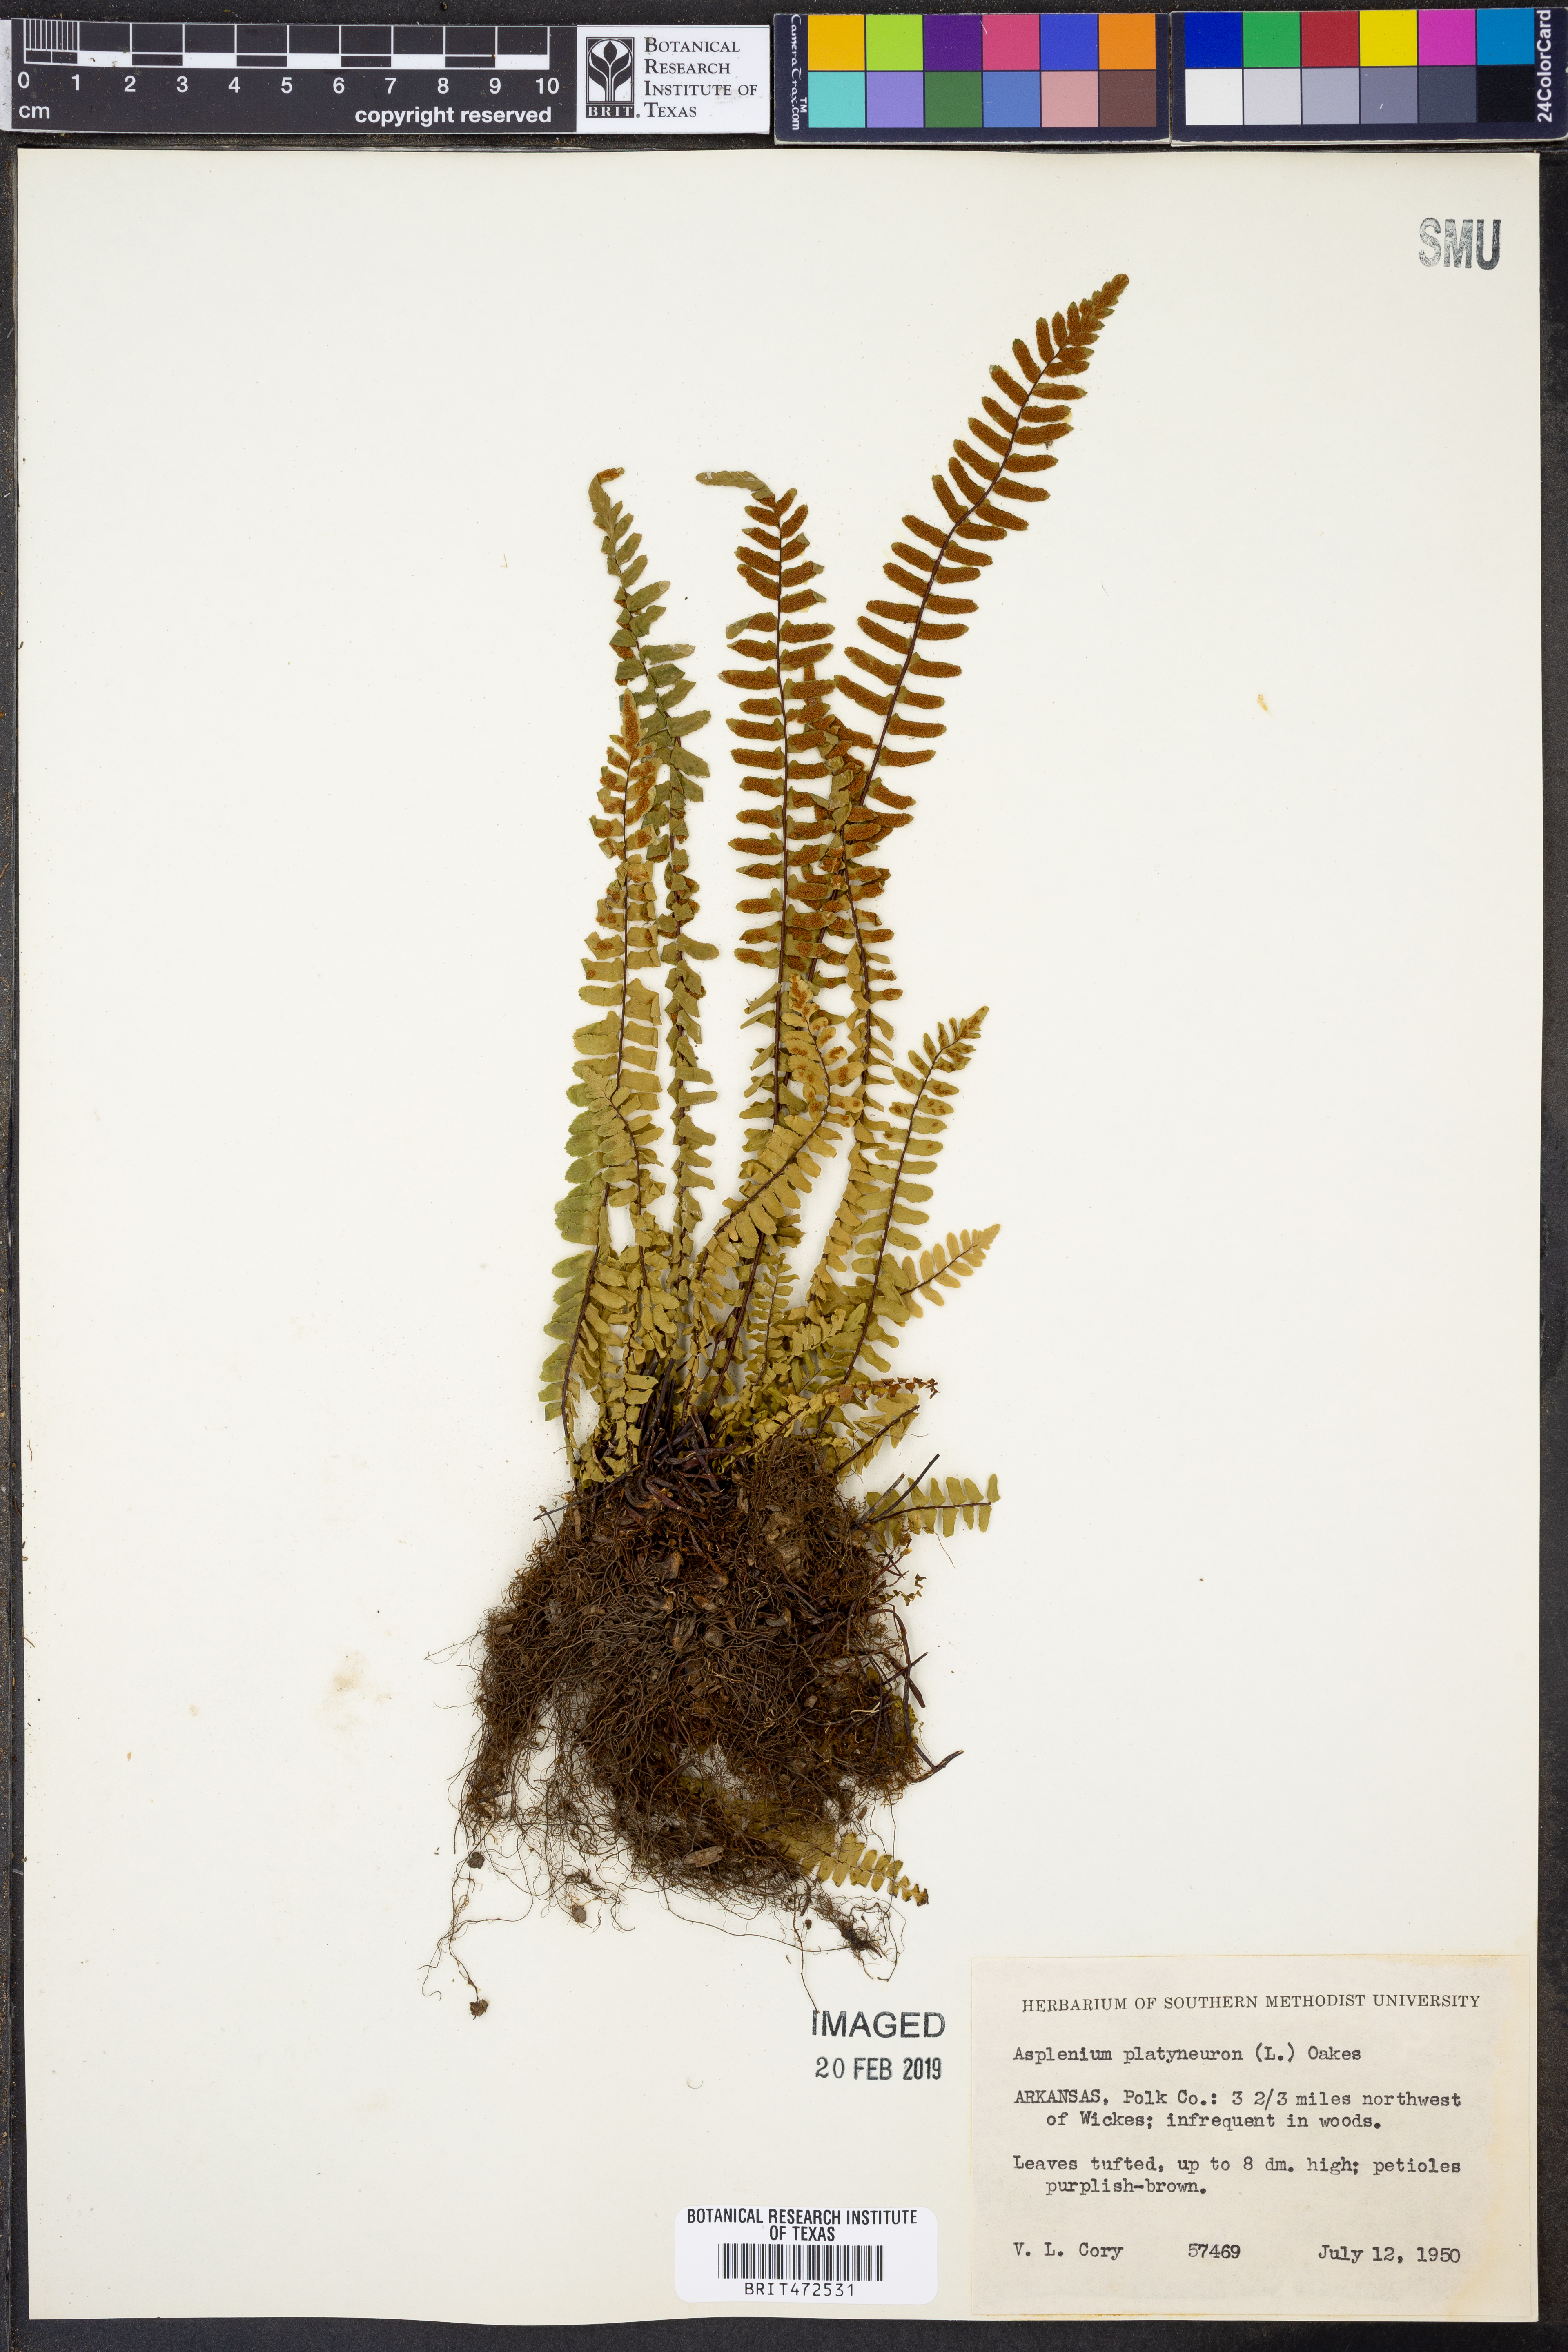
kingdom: Plantae
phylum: Tracheophyta
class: Polypodiopsida
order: Polypodiales
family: Aspleniaceae
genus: Asplenium
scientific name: Asplenium platyneuron
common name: Ebony spleenwort
